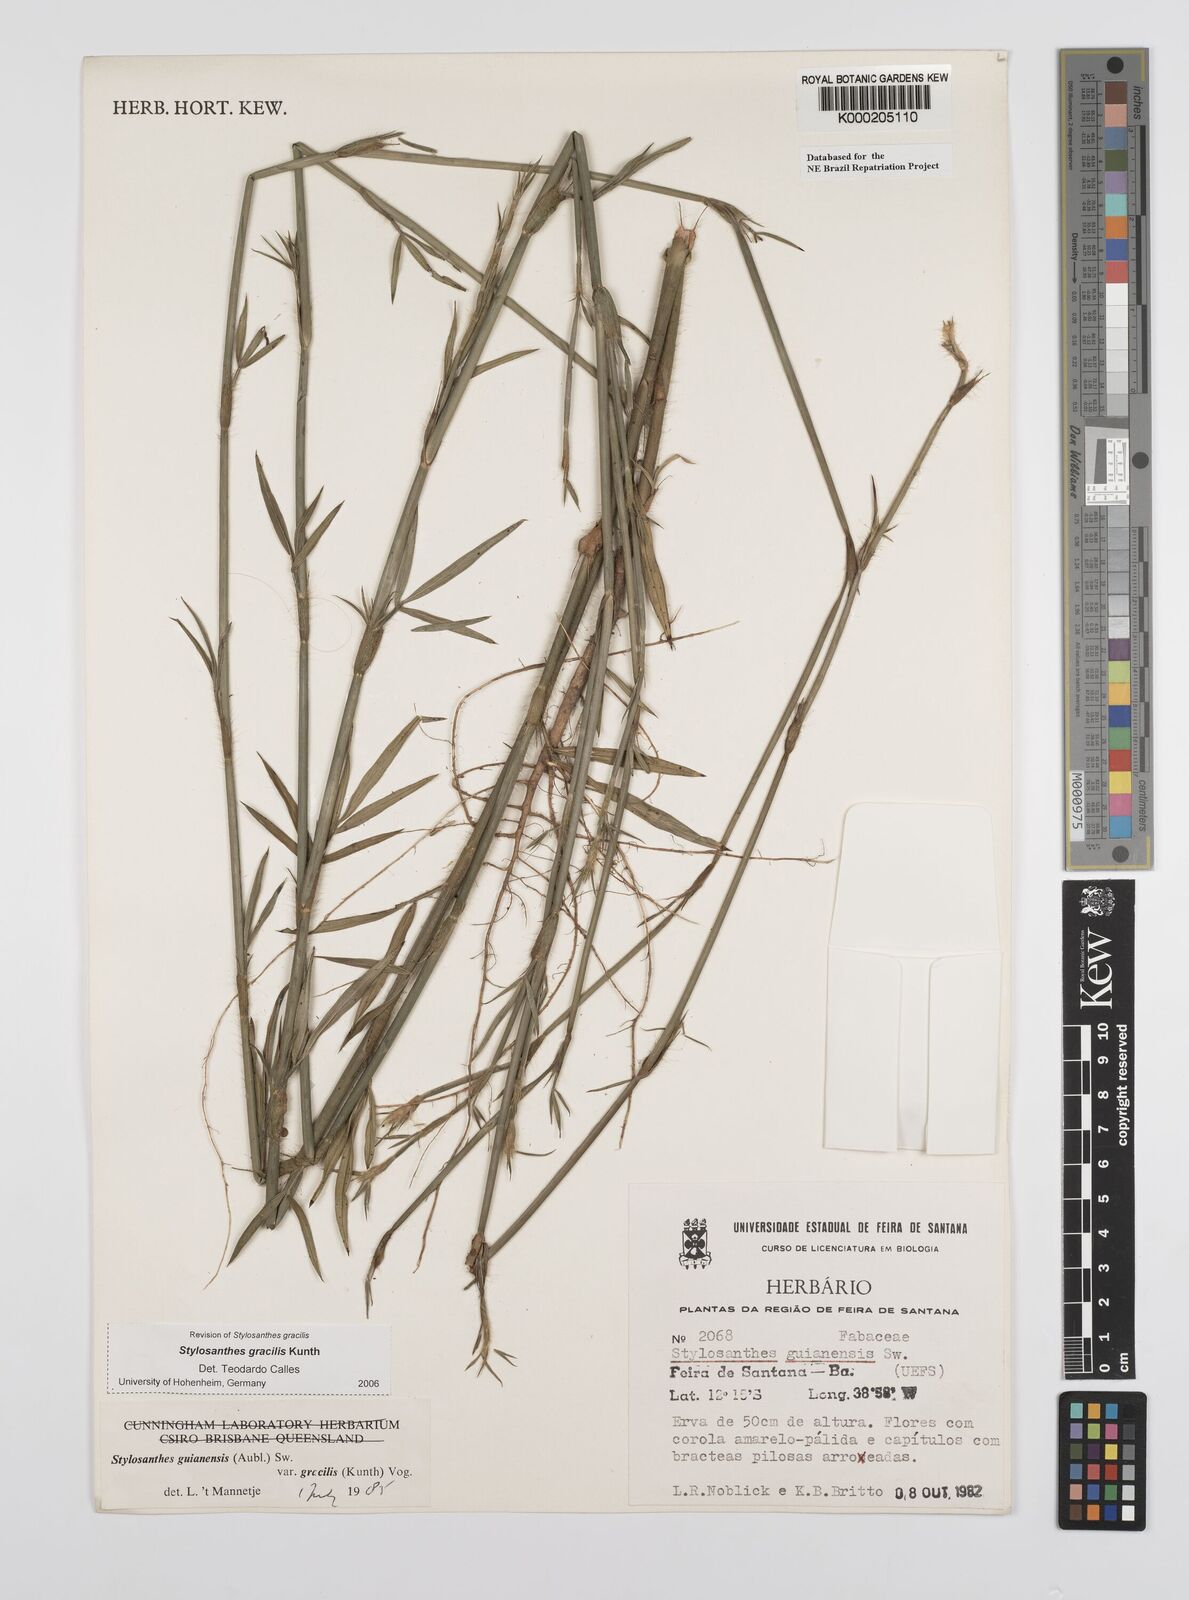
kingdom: Plantae
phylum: Tracheophyta
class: Magnoliopsida
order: Fabales
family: Fabaceae
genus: Stylosanthes
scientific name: Stylosanthes guianensis
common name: Pencil flower
